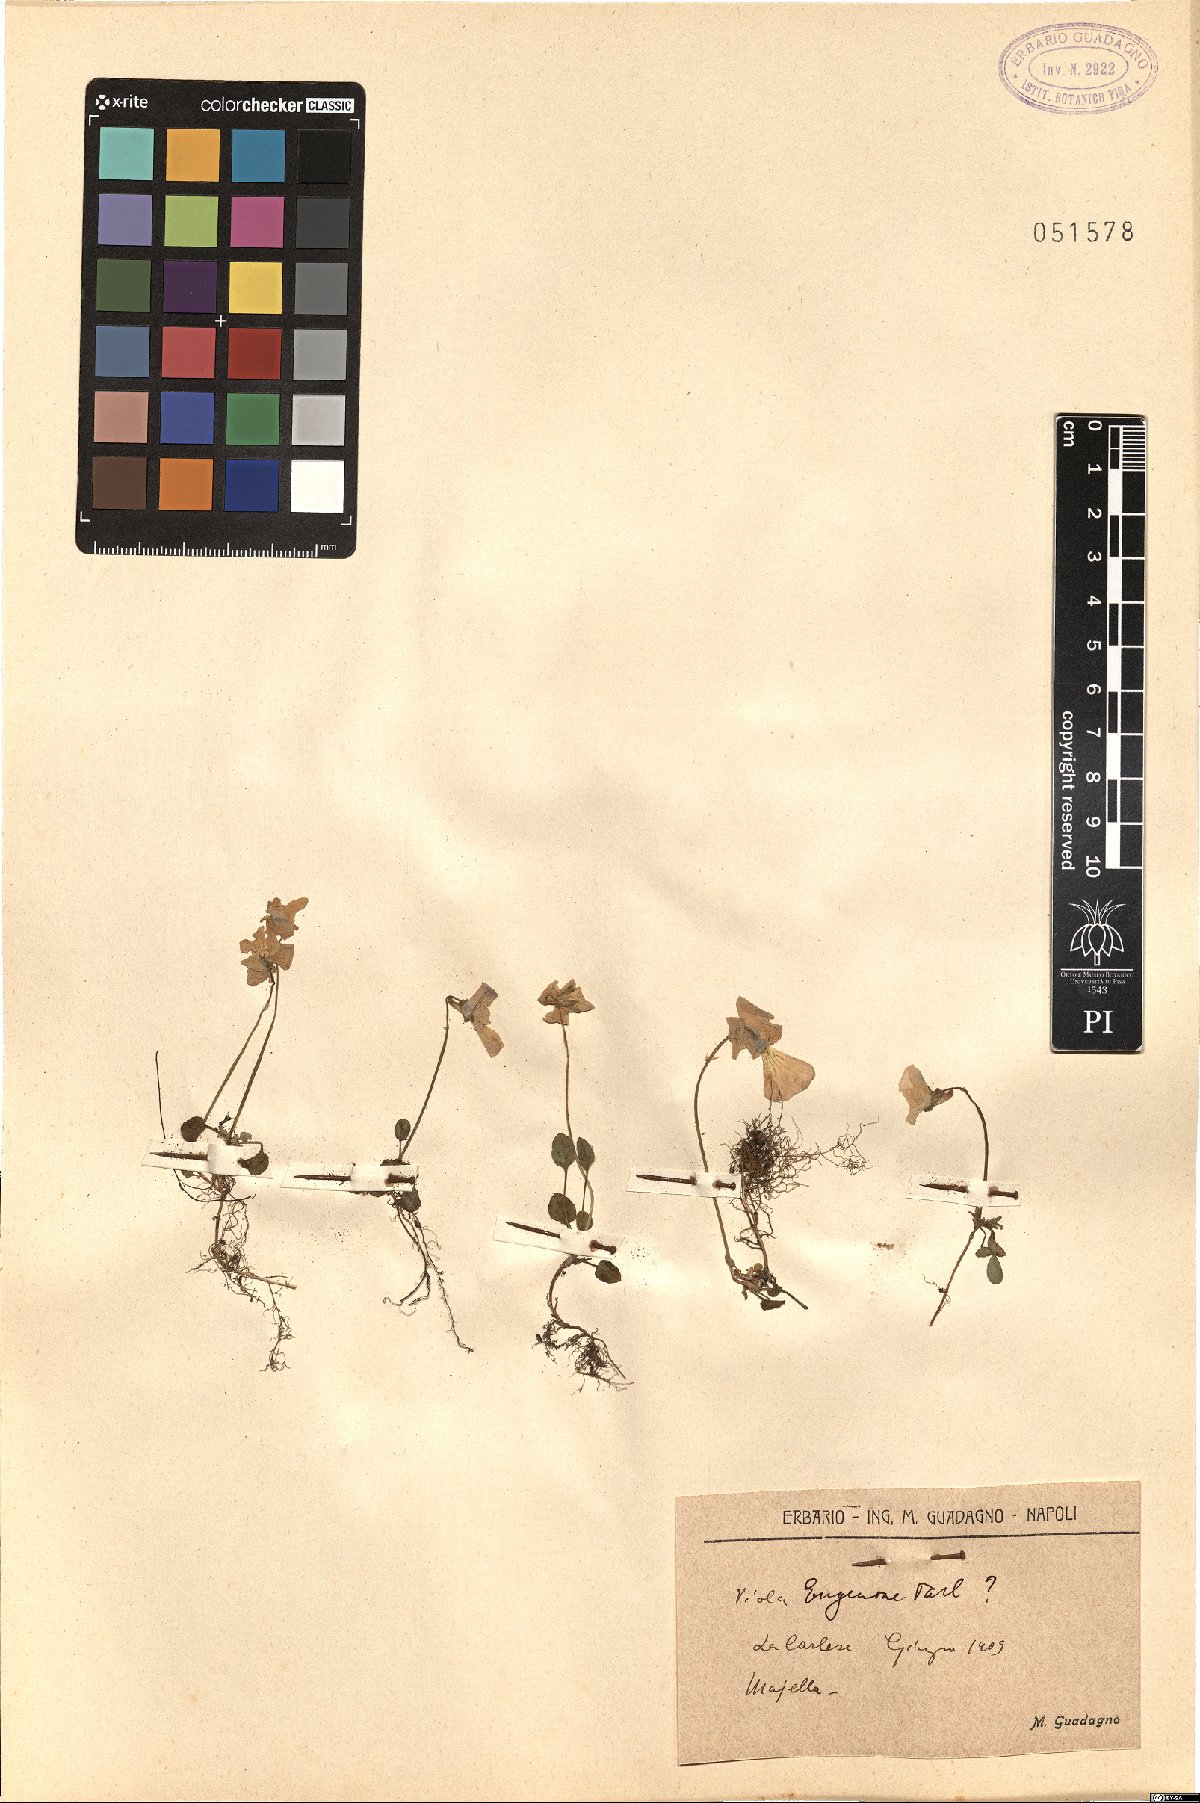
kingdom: Plantae
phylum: Tracheophyta
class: Magnoliopsida
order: Malpighiales
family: Violaceae
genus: Viola
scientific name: Viola eugeniae
